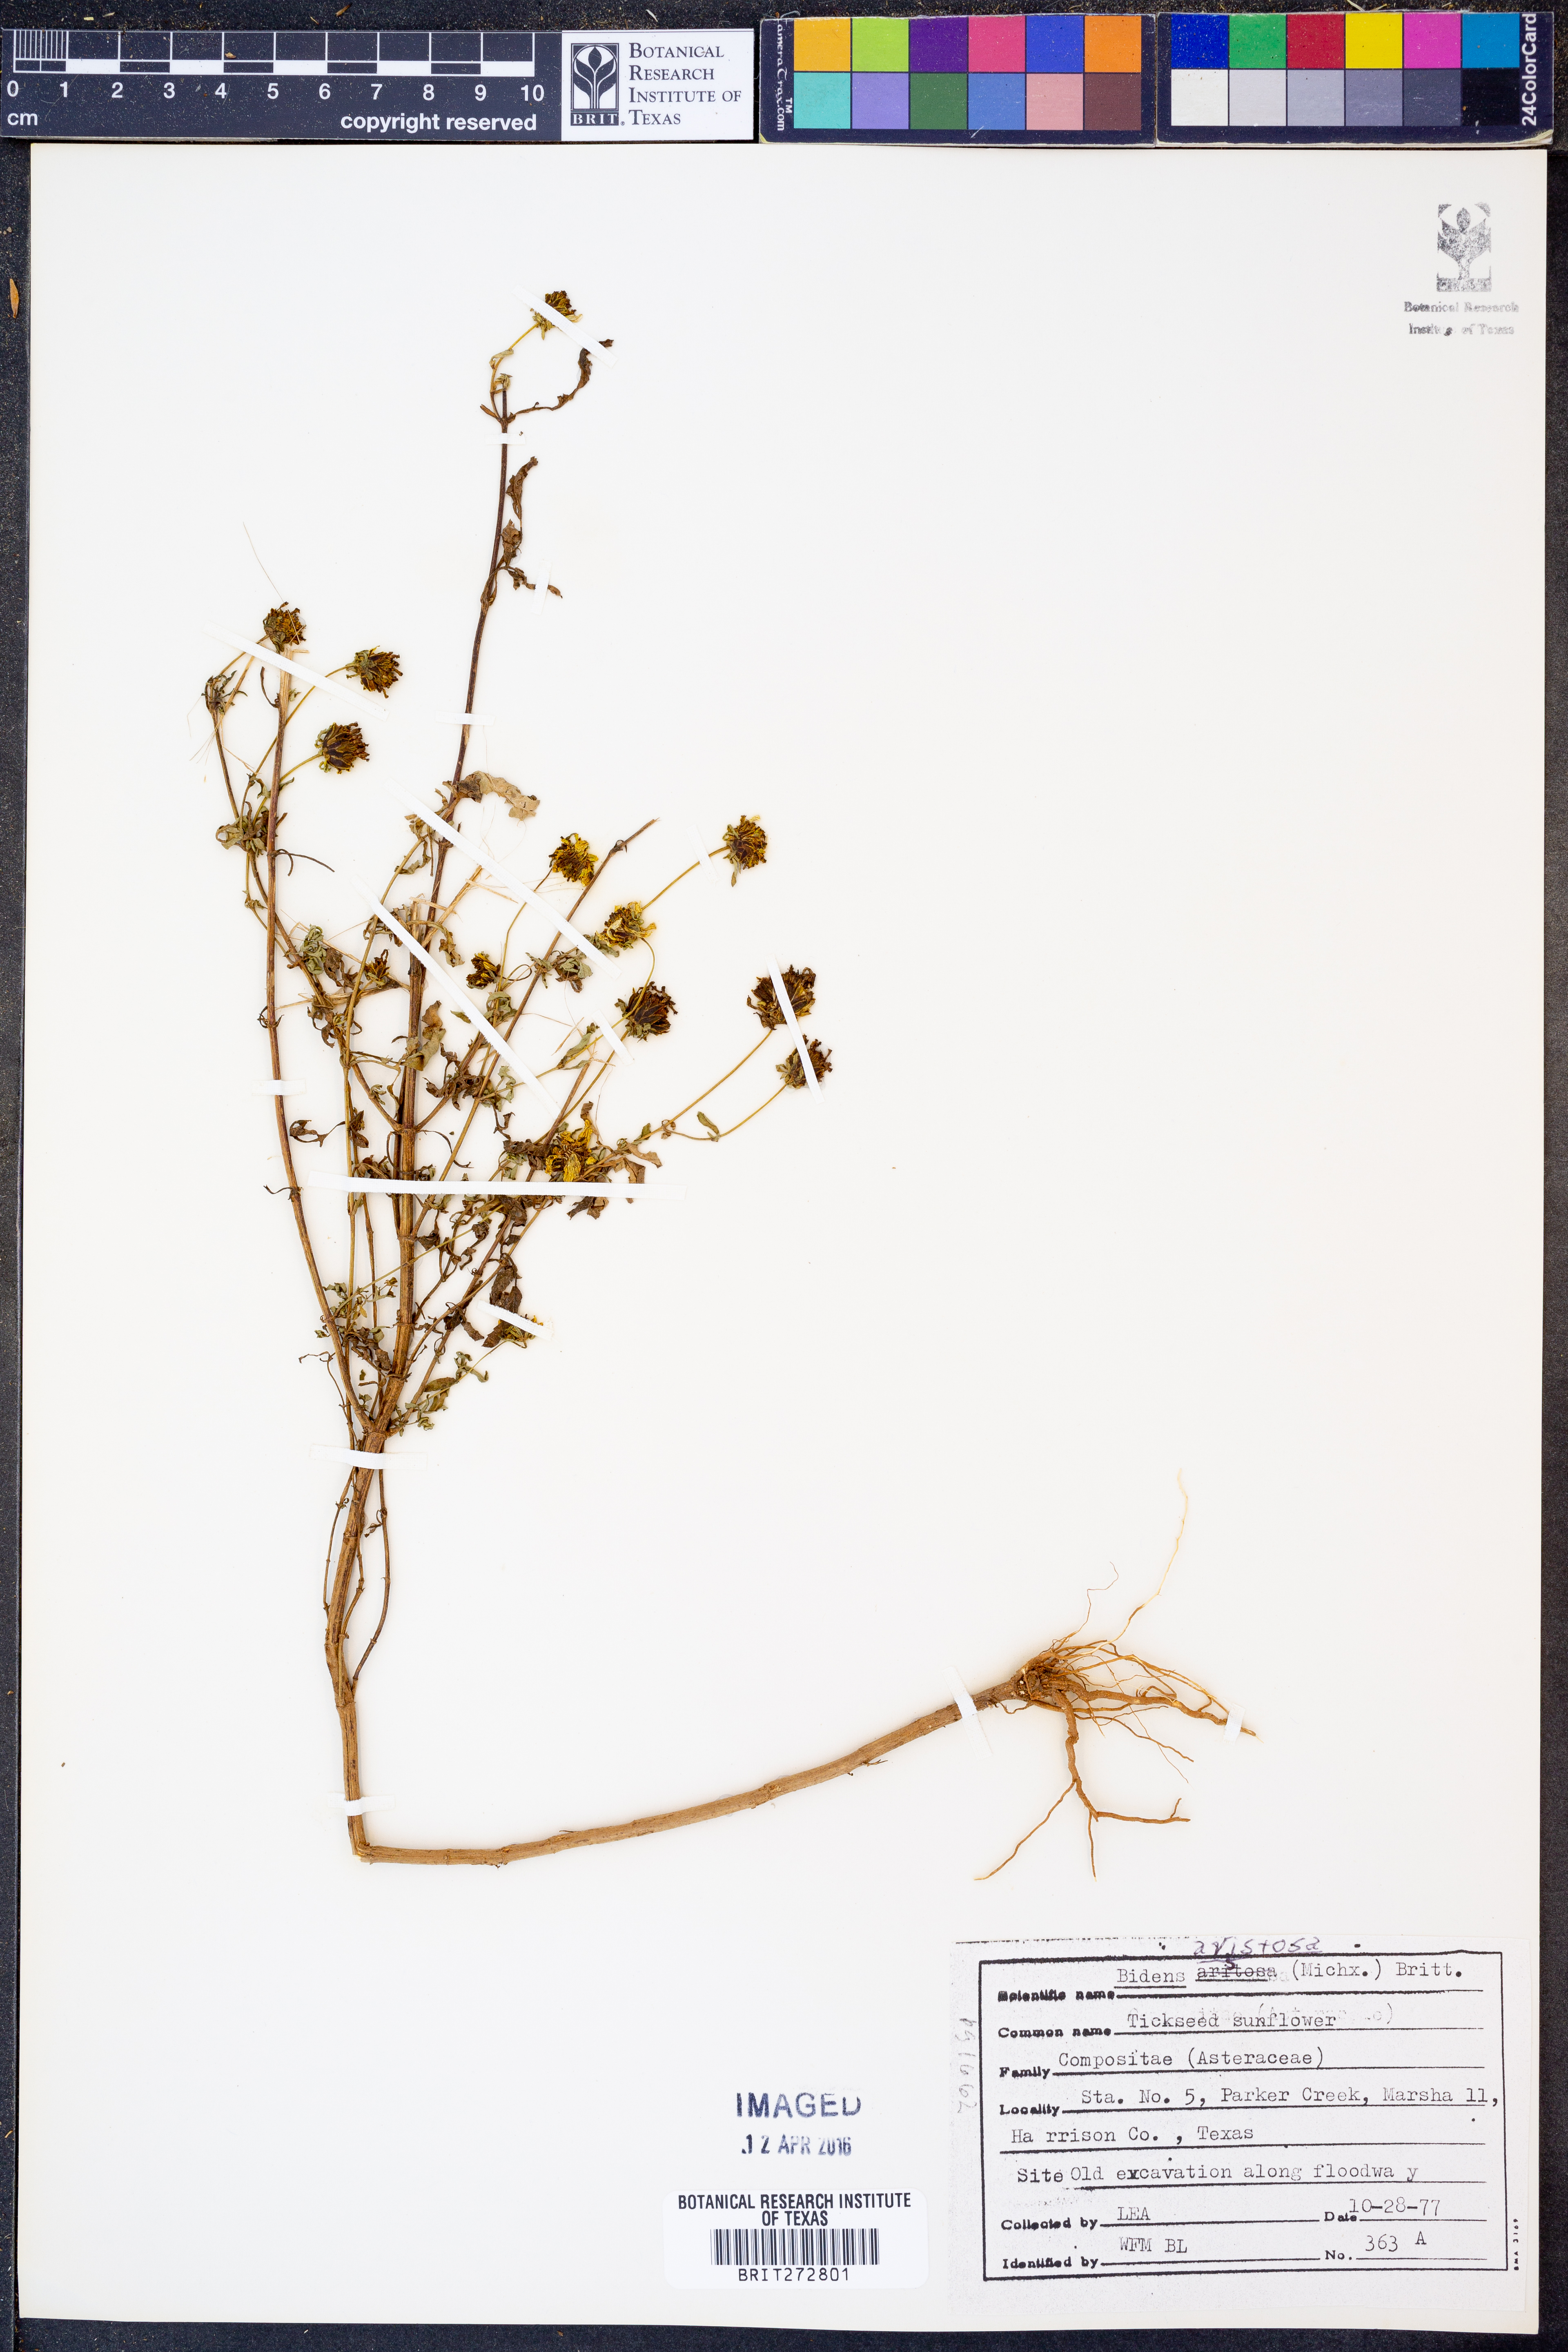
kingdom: Plantae
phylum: Tracheophyta
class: Magnoliopsida
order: Asterales
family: Asteraceae
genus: Bidens
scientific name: Bidens aristosa
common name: Western tickseed
